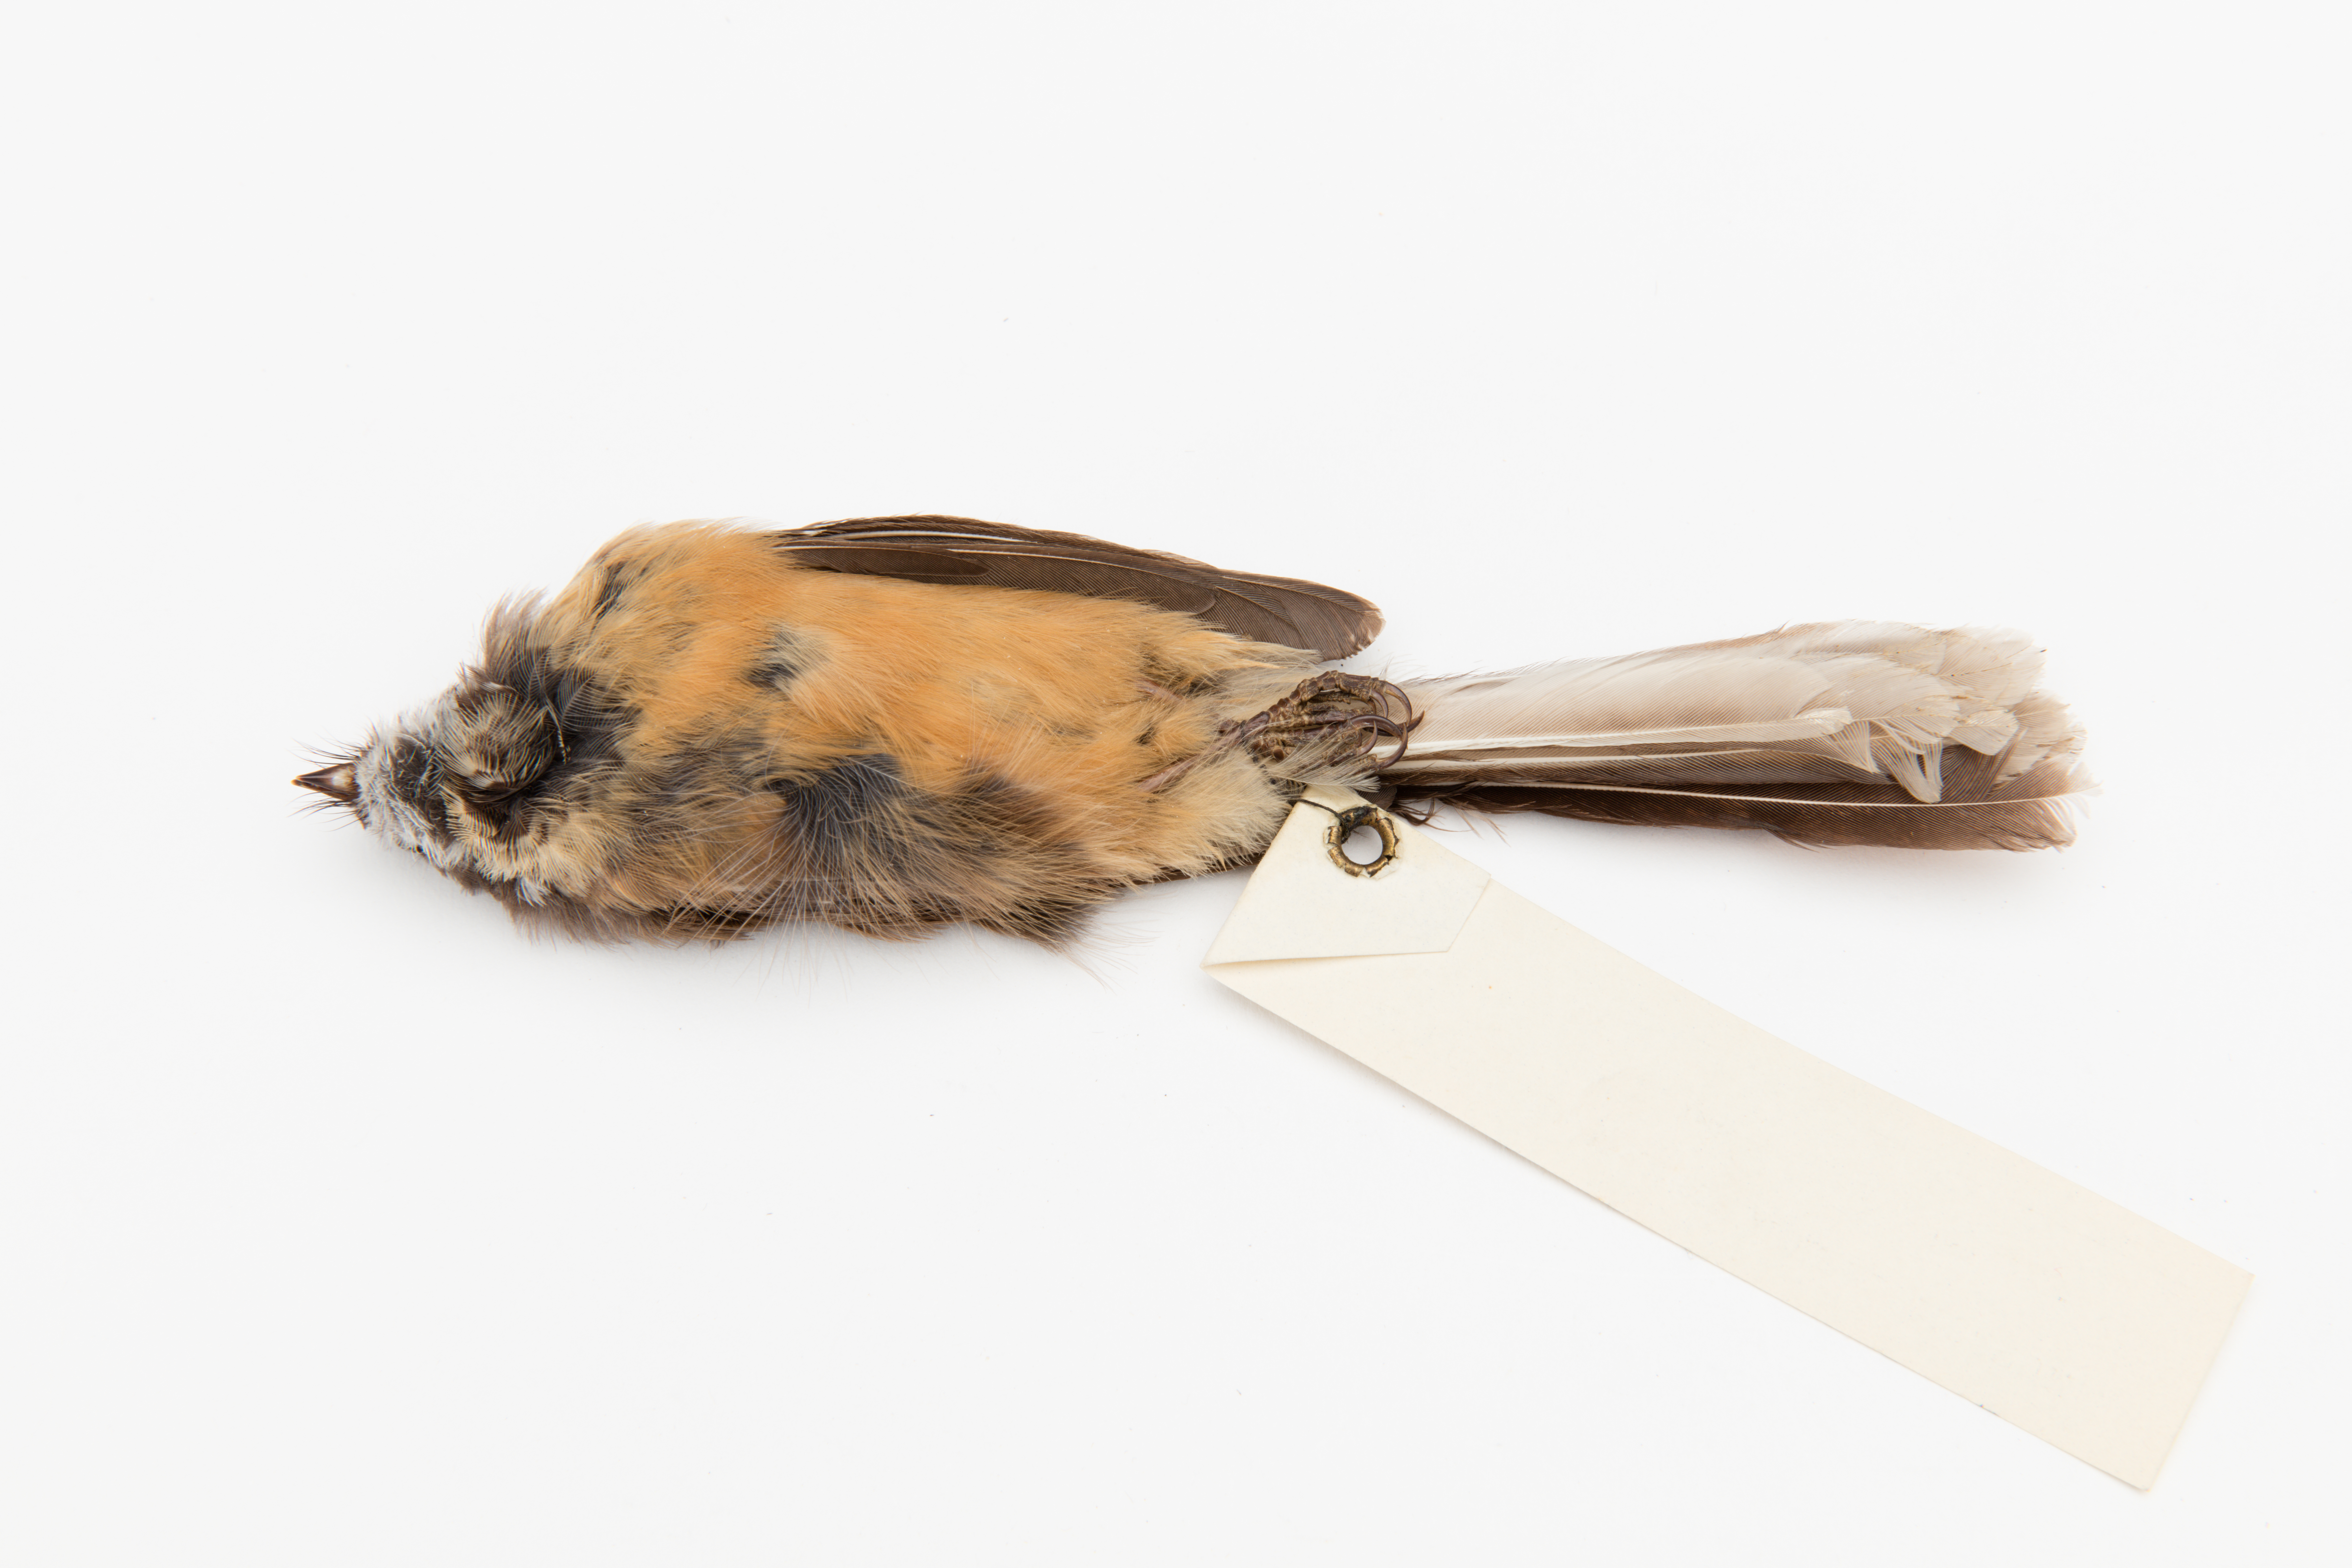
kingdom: Animalia
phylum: Chordata
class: Aves
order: Passeriformes
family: Rhipiduridae
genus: Rhipidura
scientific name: Rhipidura fuliginosa
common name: New zealand fantail
